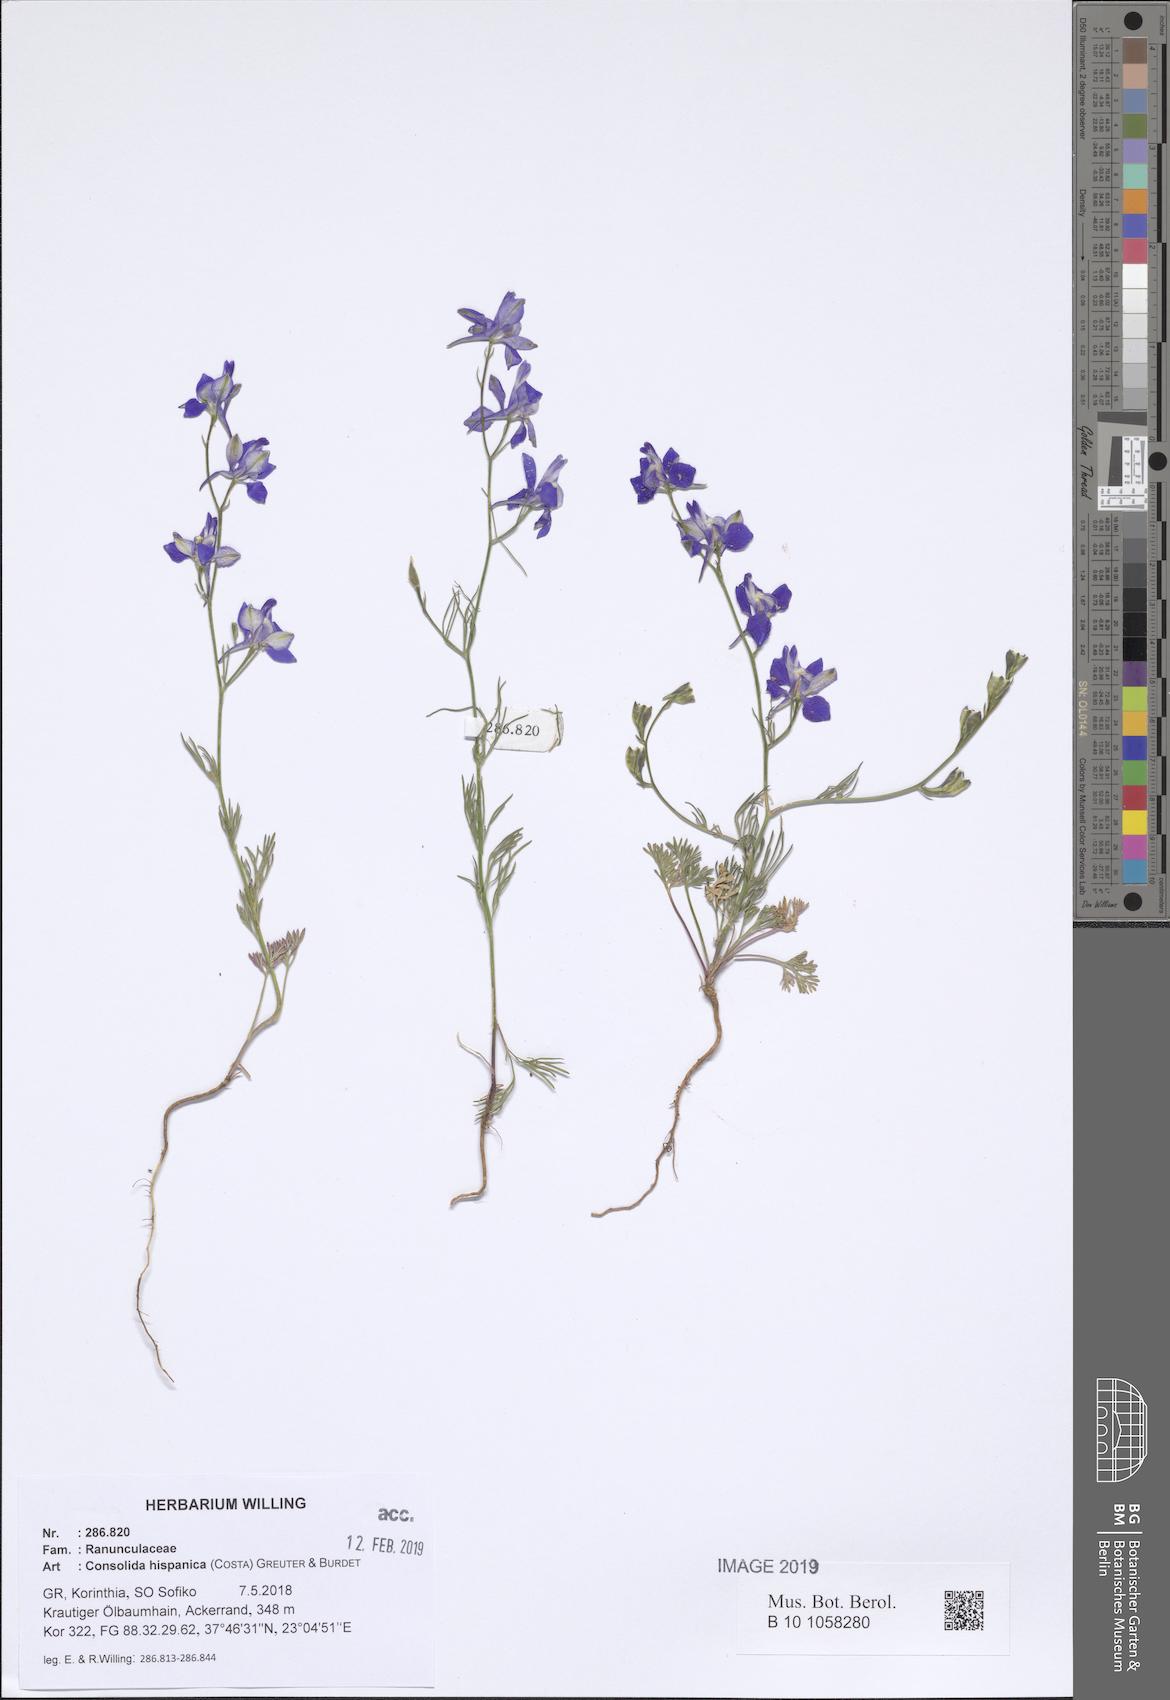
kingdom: Plantae
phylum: Tracheophyta
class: Magnoliopsida
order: Ranunculales
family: Ranunculaceae
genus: Delphinium
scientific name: Delphinium hispanicum
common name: Oriental knight's-spur
